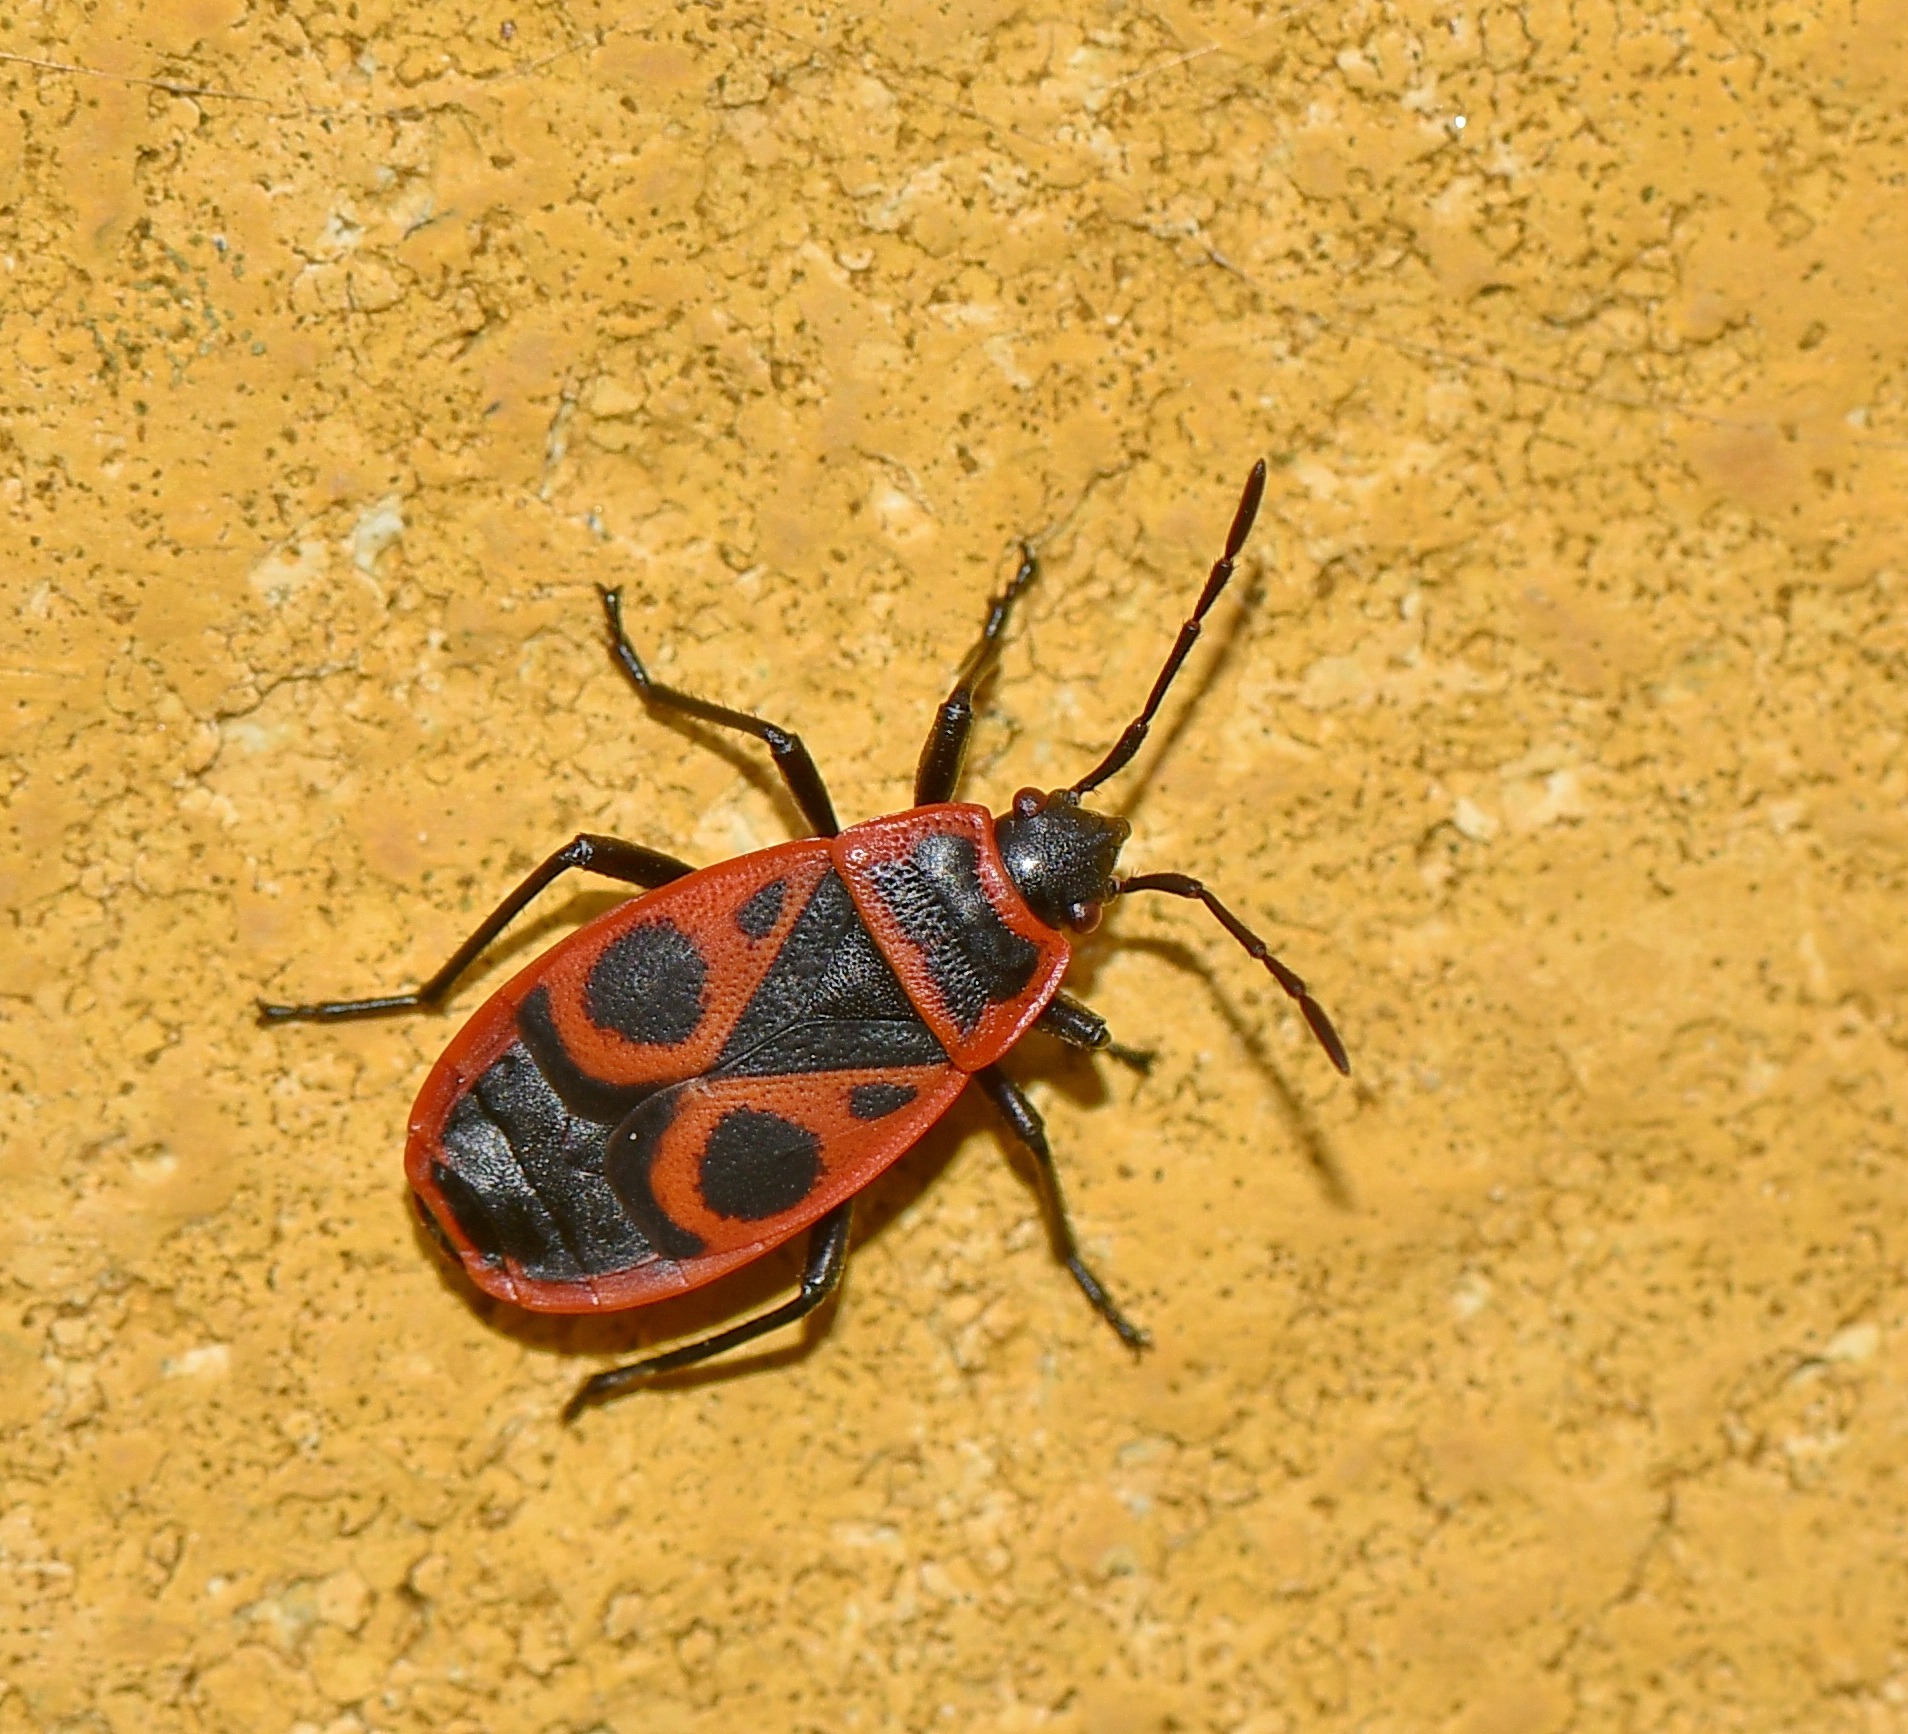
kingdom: Animalia
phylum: Arthropoda
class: Insecta
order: Hemiptera
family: Pyrrhocoridae
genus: Pyrrhocoris
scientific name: Pyrrhocoris apterus
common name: Ildtæge
